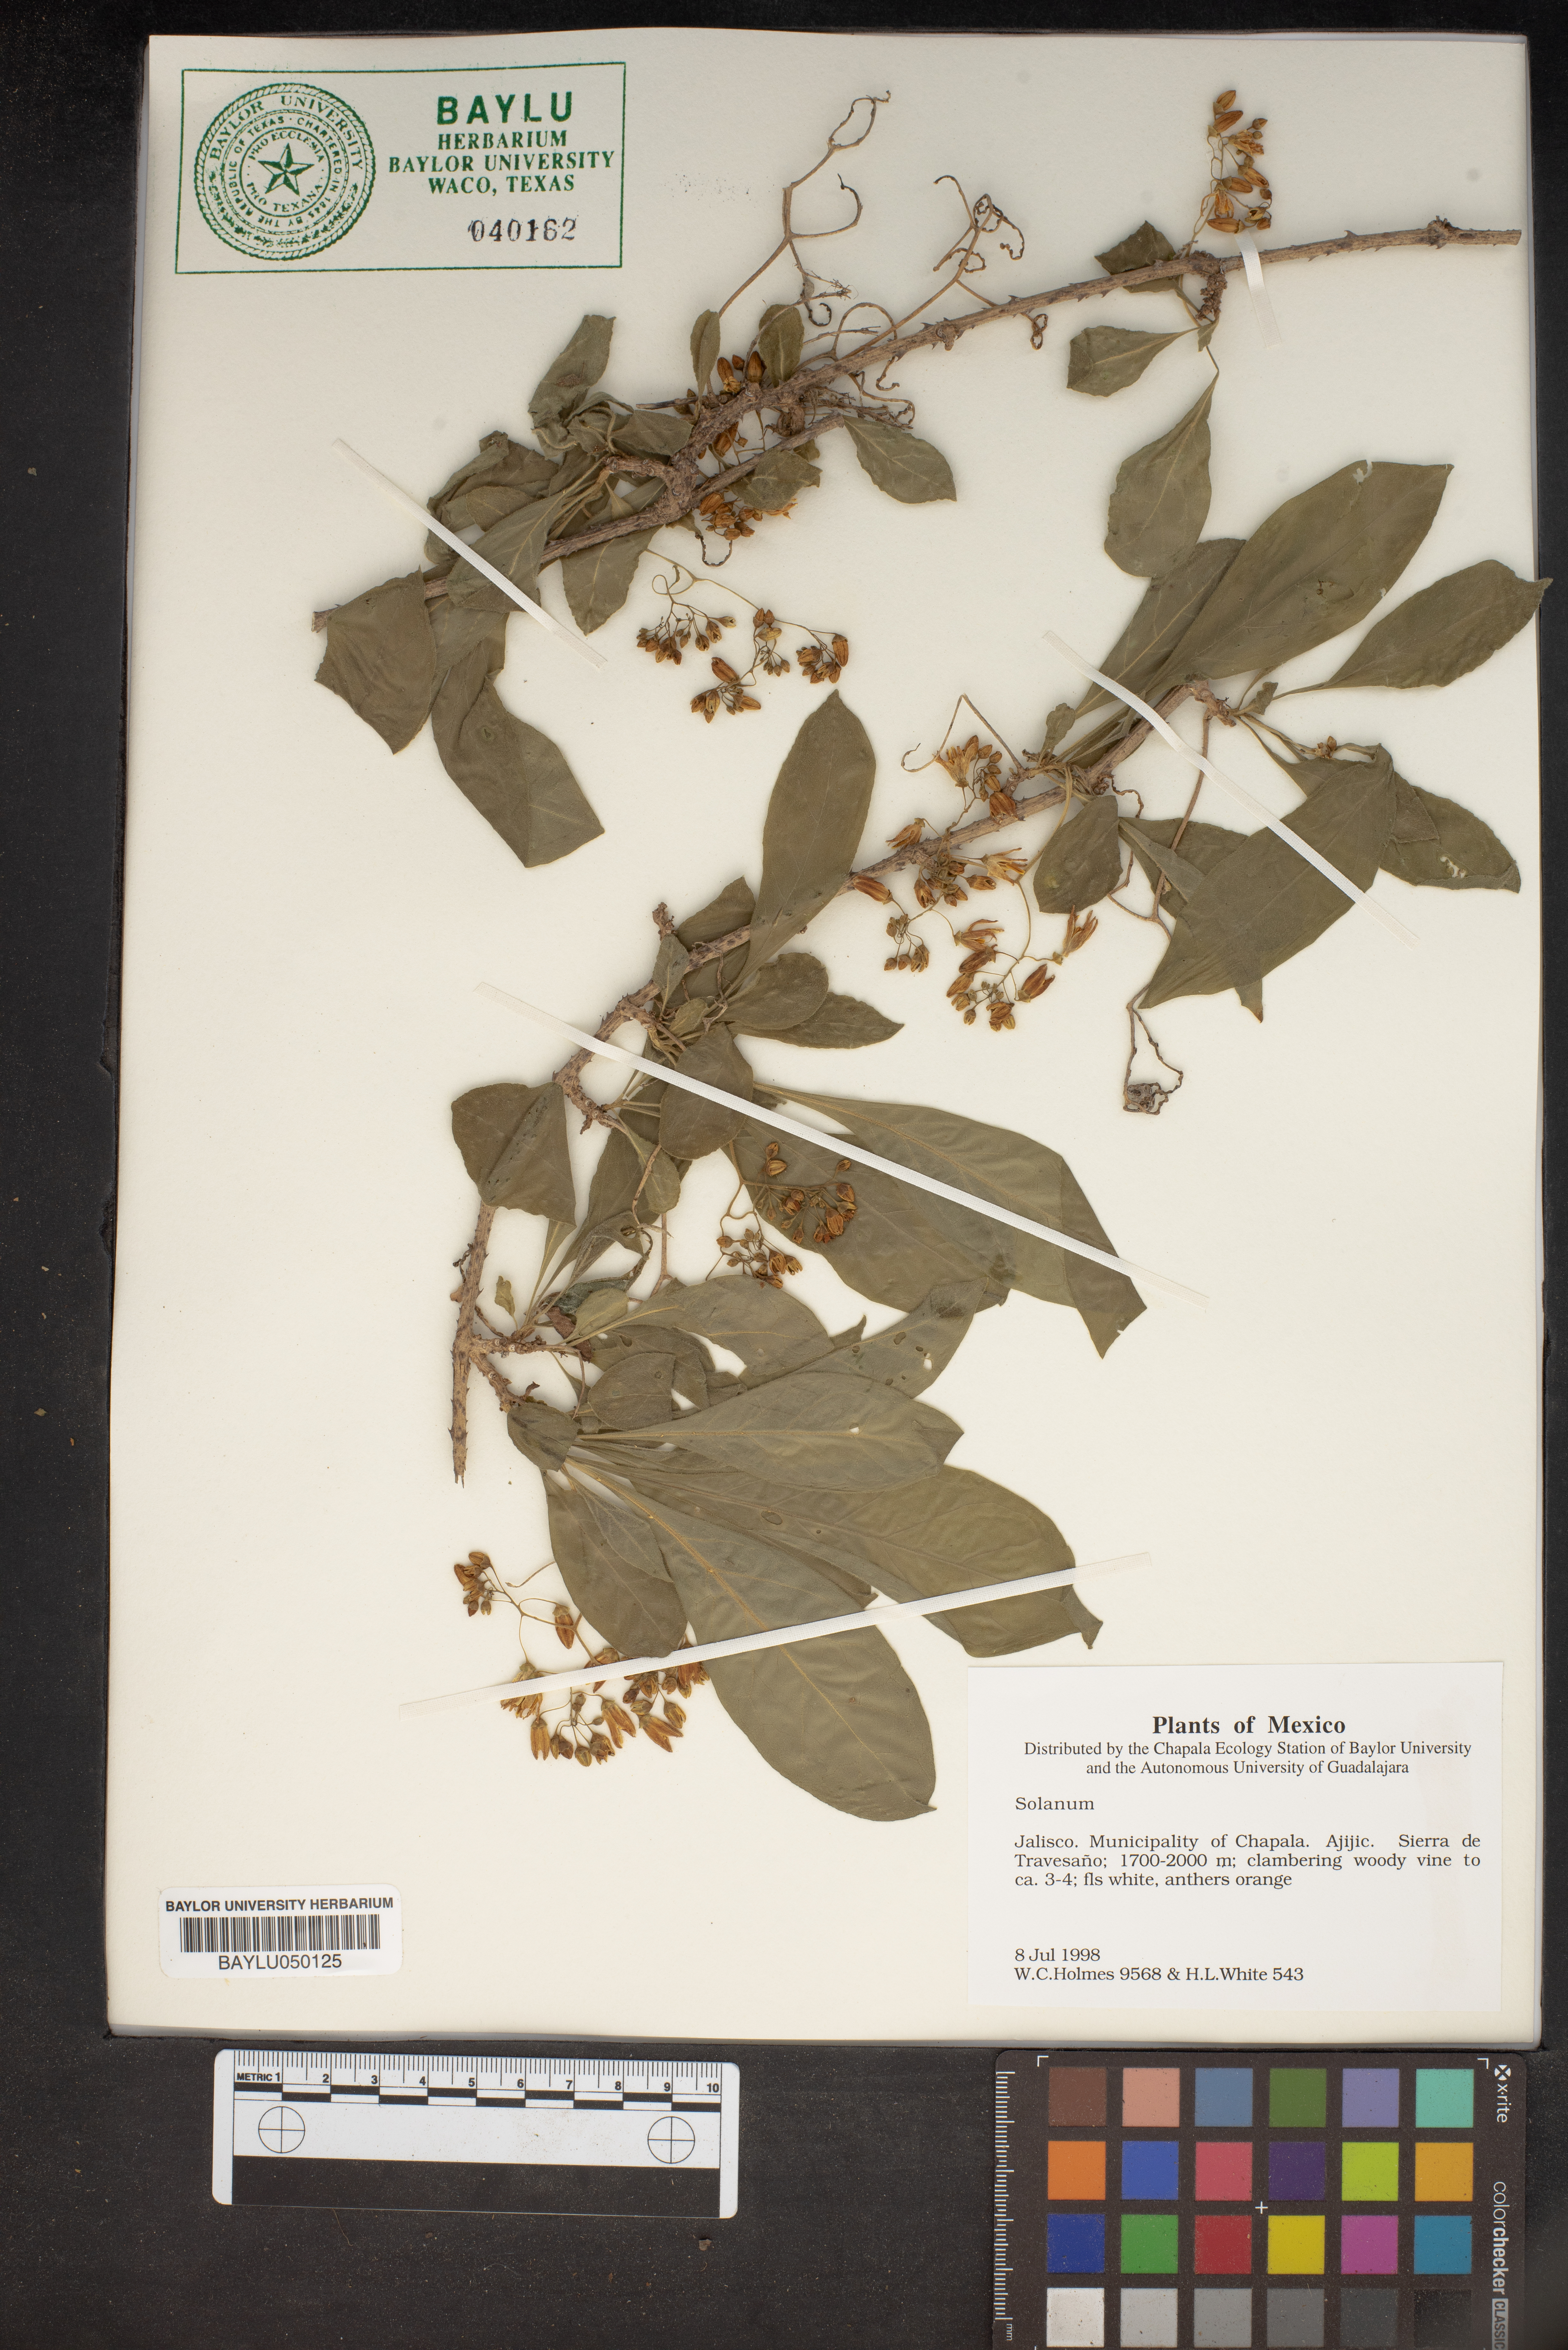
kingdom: Plantae
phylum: Tracheophyta
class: Magnoliopsida
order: Solanales
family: Solanaceae
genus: Solanum
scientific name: Solanum
